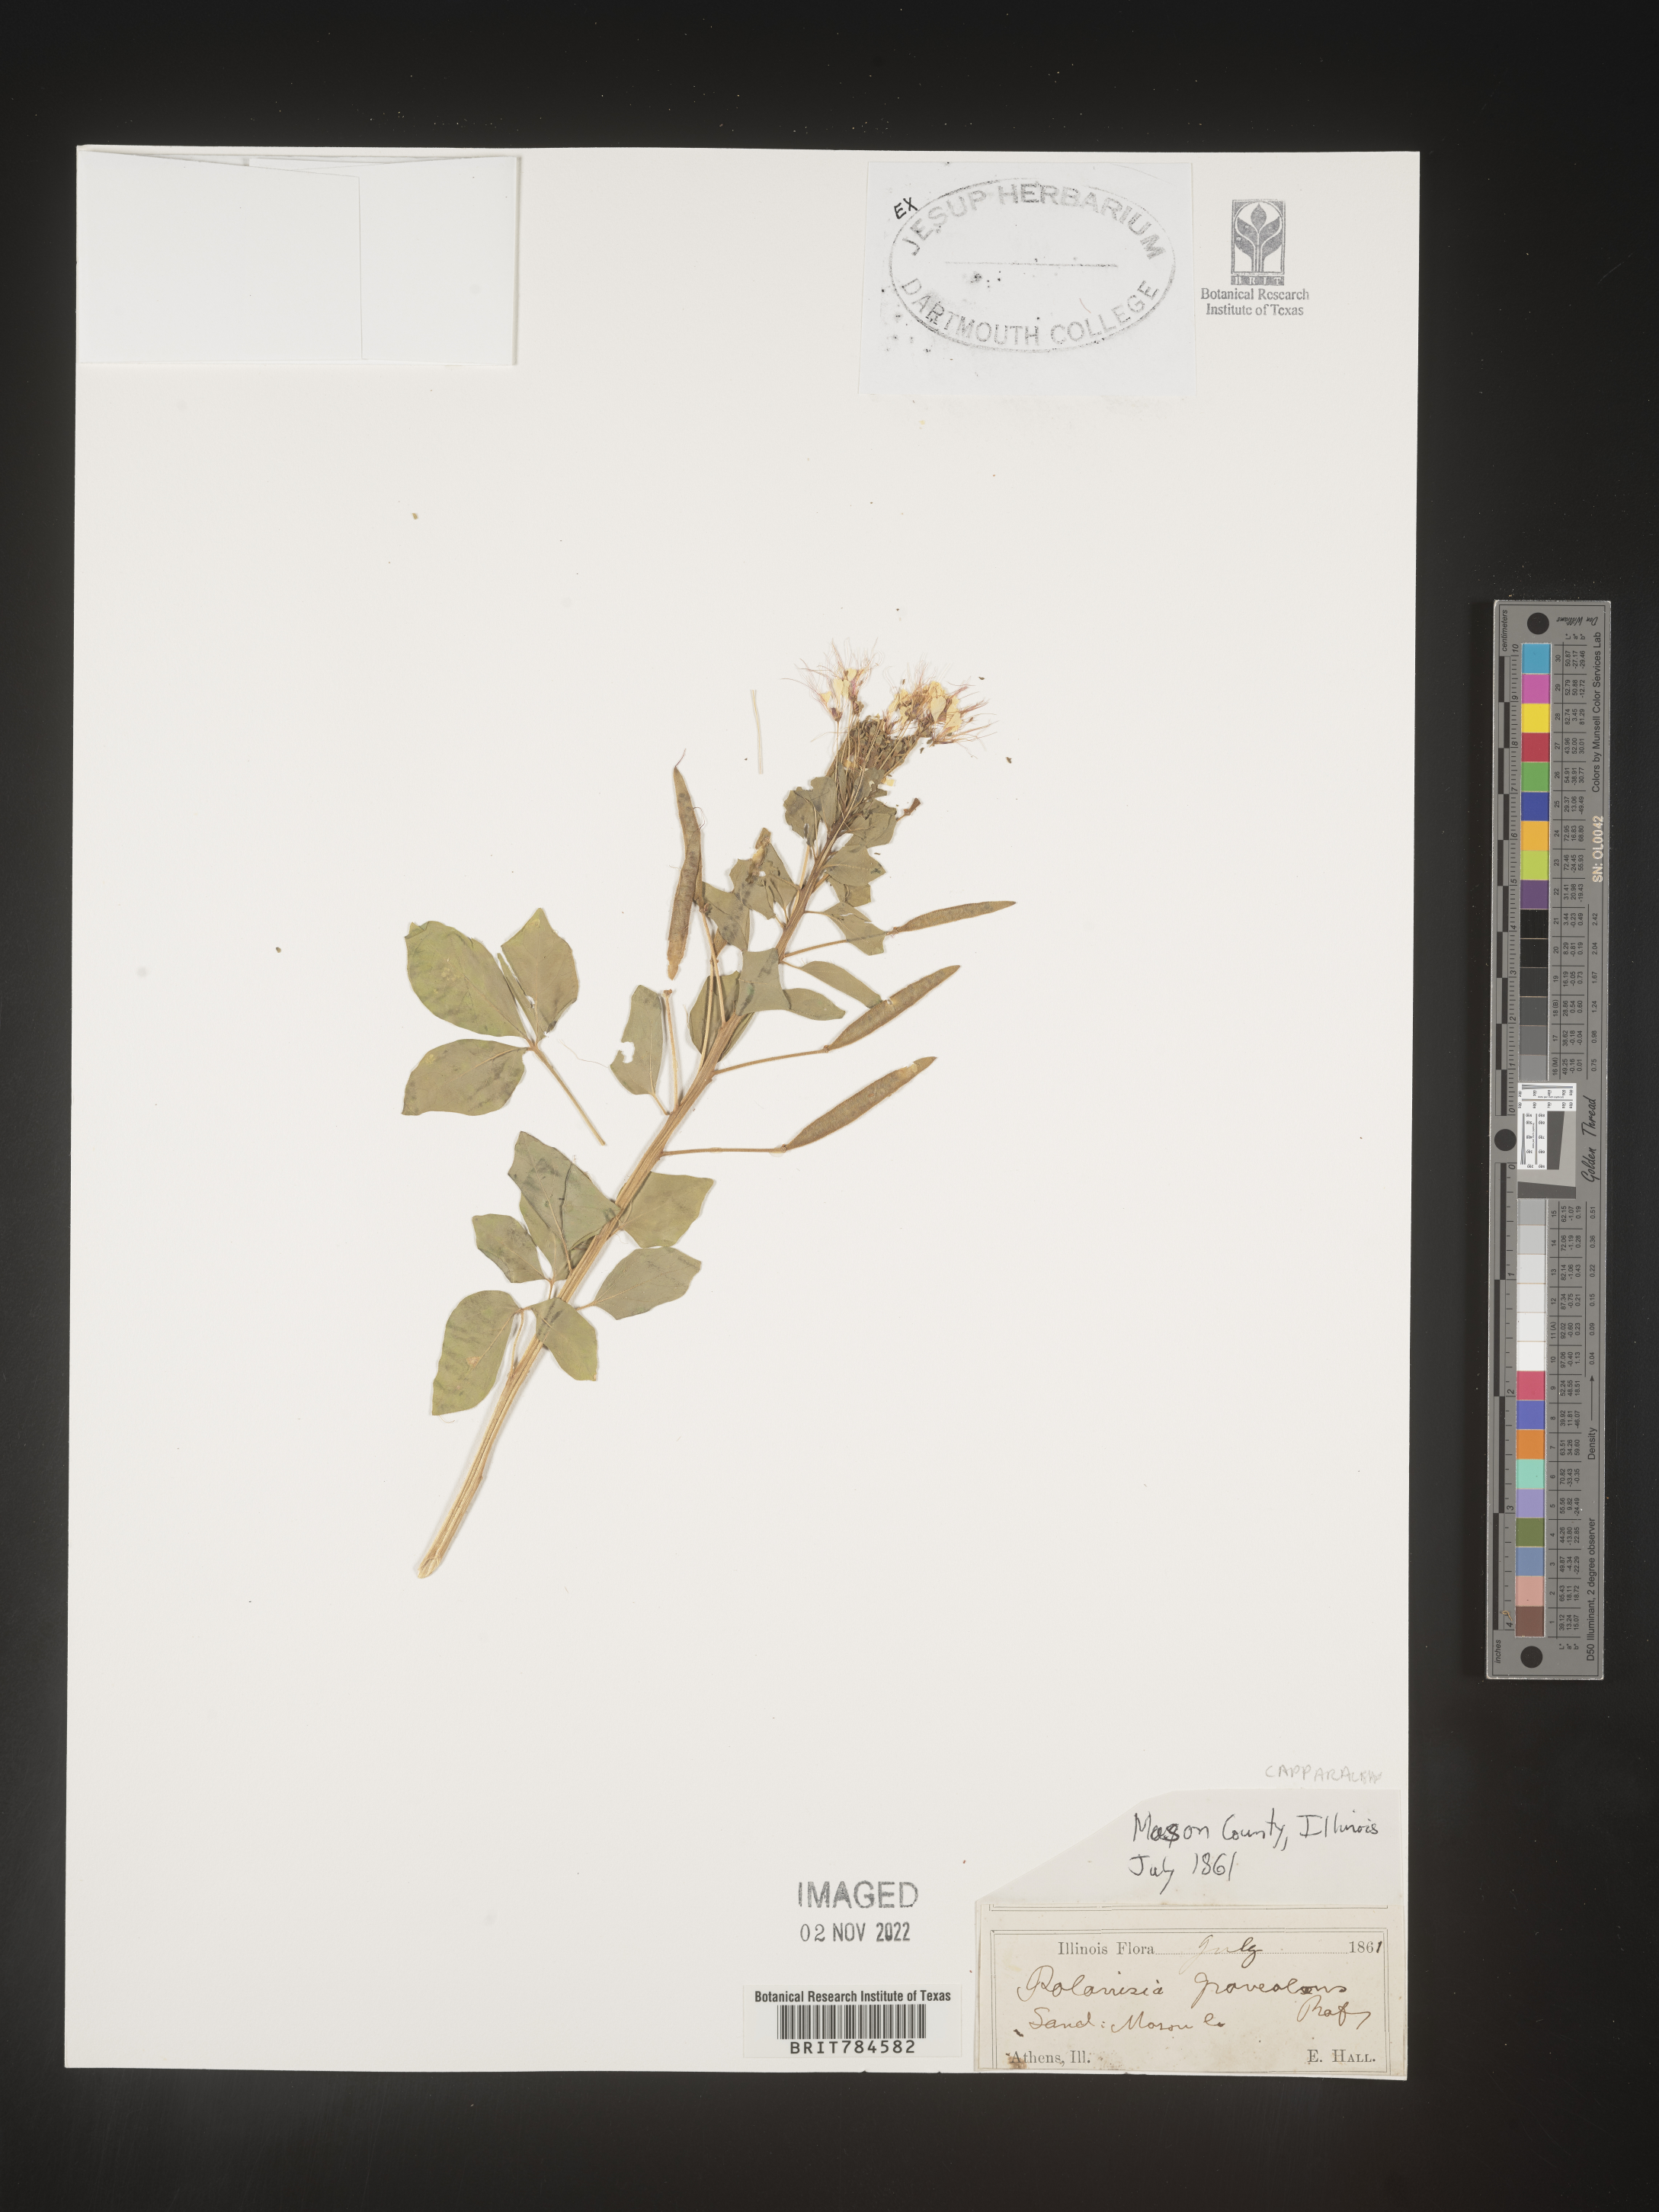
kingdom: Plantae
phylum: Tracheophyta
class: Magnoliopsida
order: Brassicales
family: Cleomaceae
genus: Polanisia
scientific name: Polanisia
